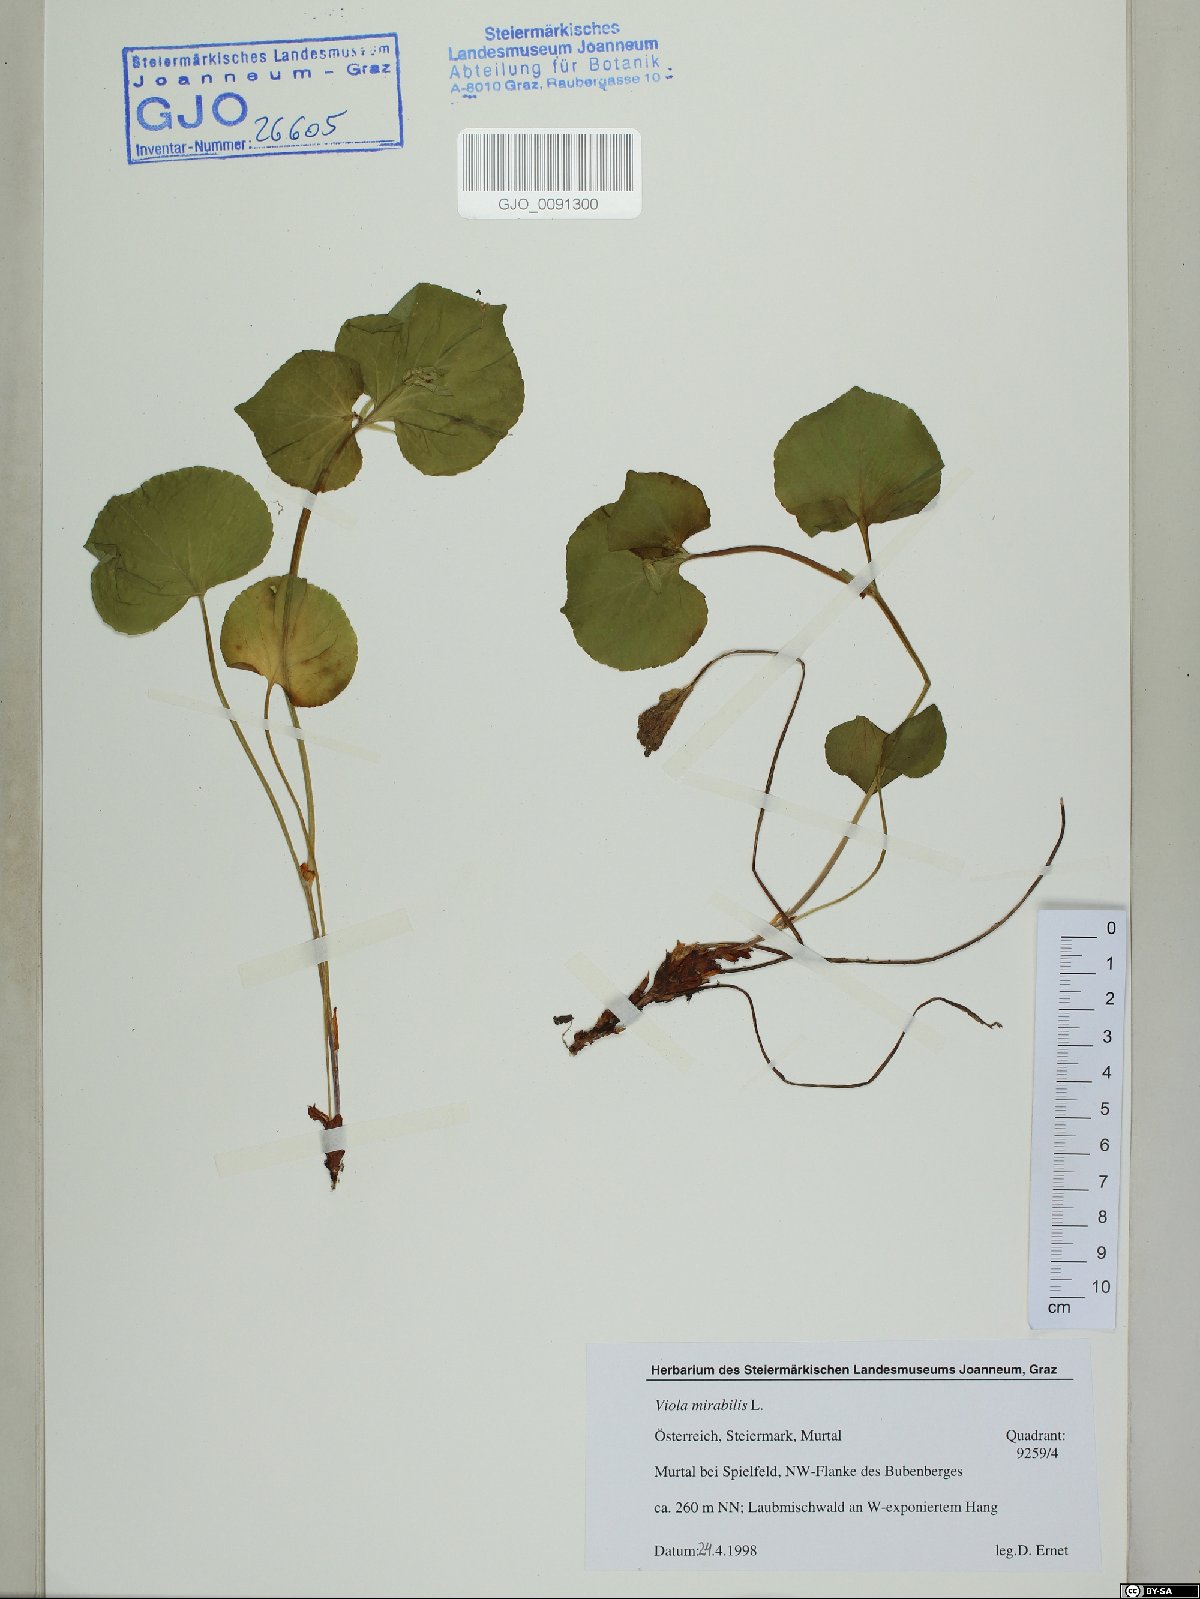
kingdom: Plantae
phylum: Tracheophyta
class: Magnoliopsida
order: Malpighiales
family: Violaceae
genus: Viola
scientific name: Viola mirabilis
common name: Wonder violet
